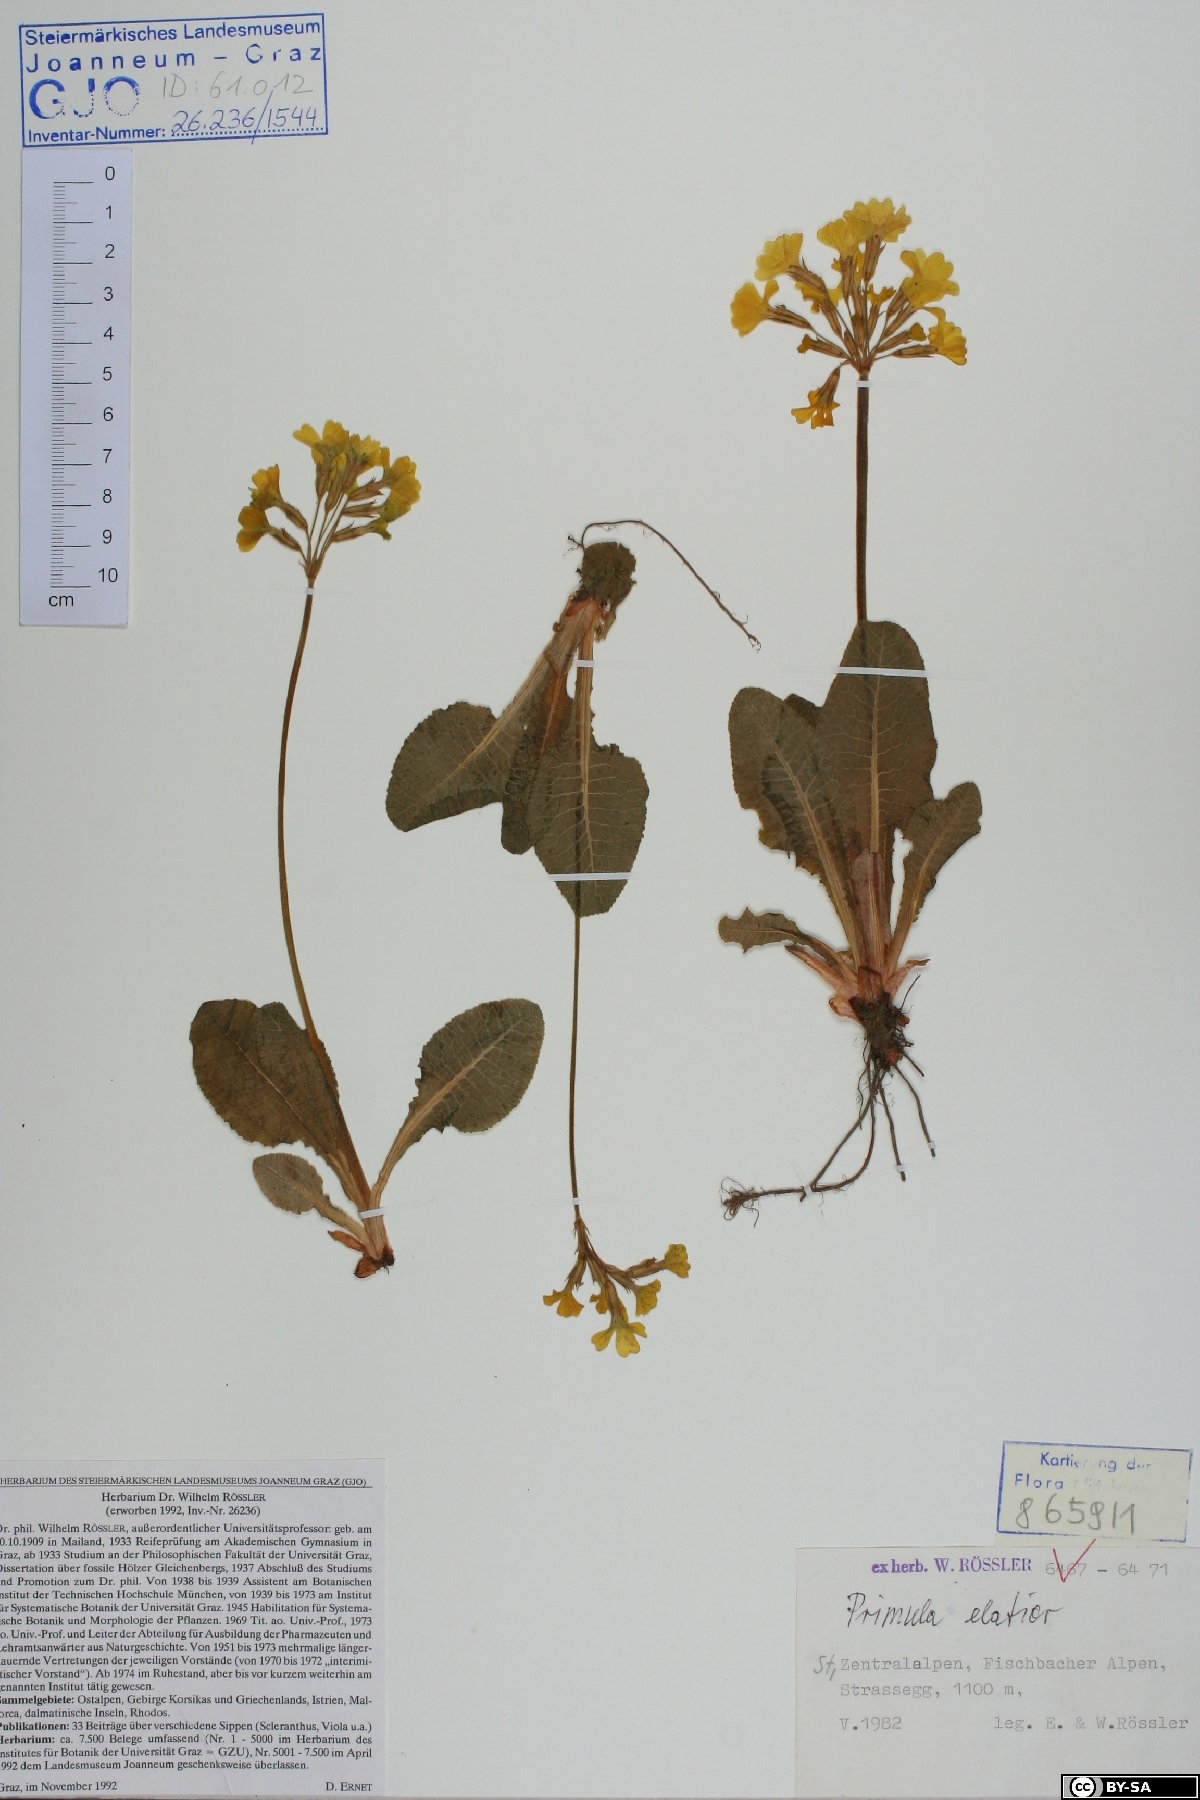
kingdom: Plantae
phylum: Tracheophyta
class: Magnoliopsida
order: Ericales
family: Primulaceae
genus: Primula
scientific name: Primula elatior
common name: Oxlip
